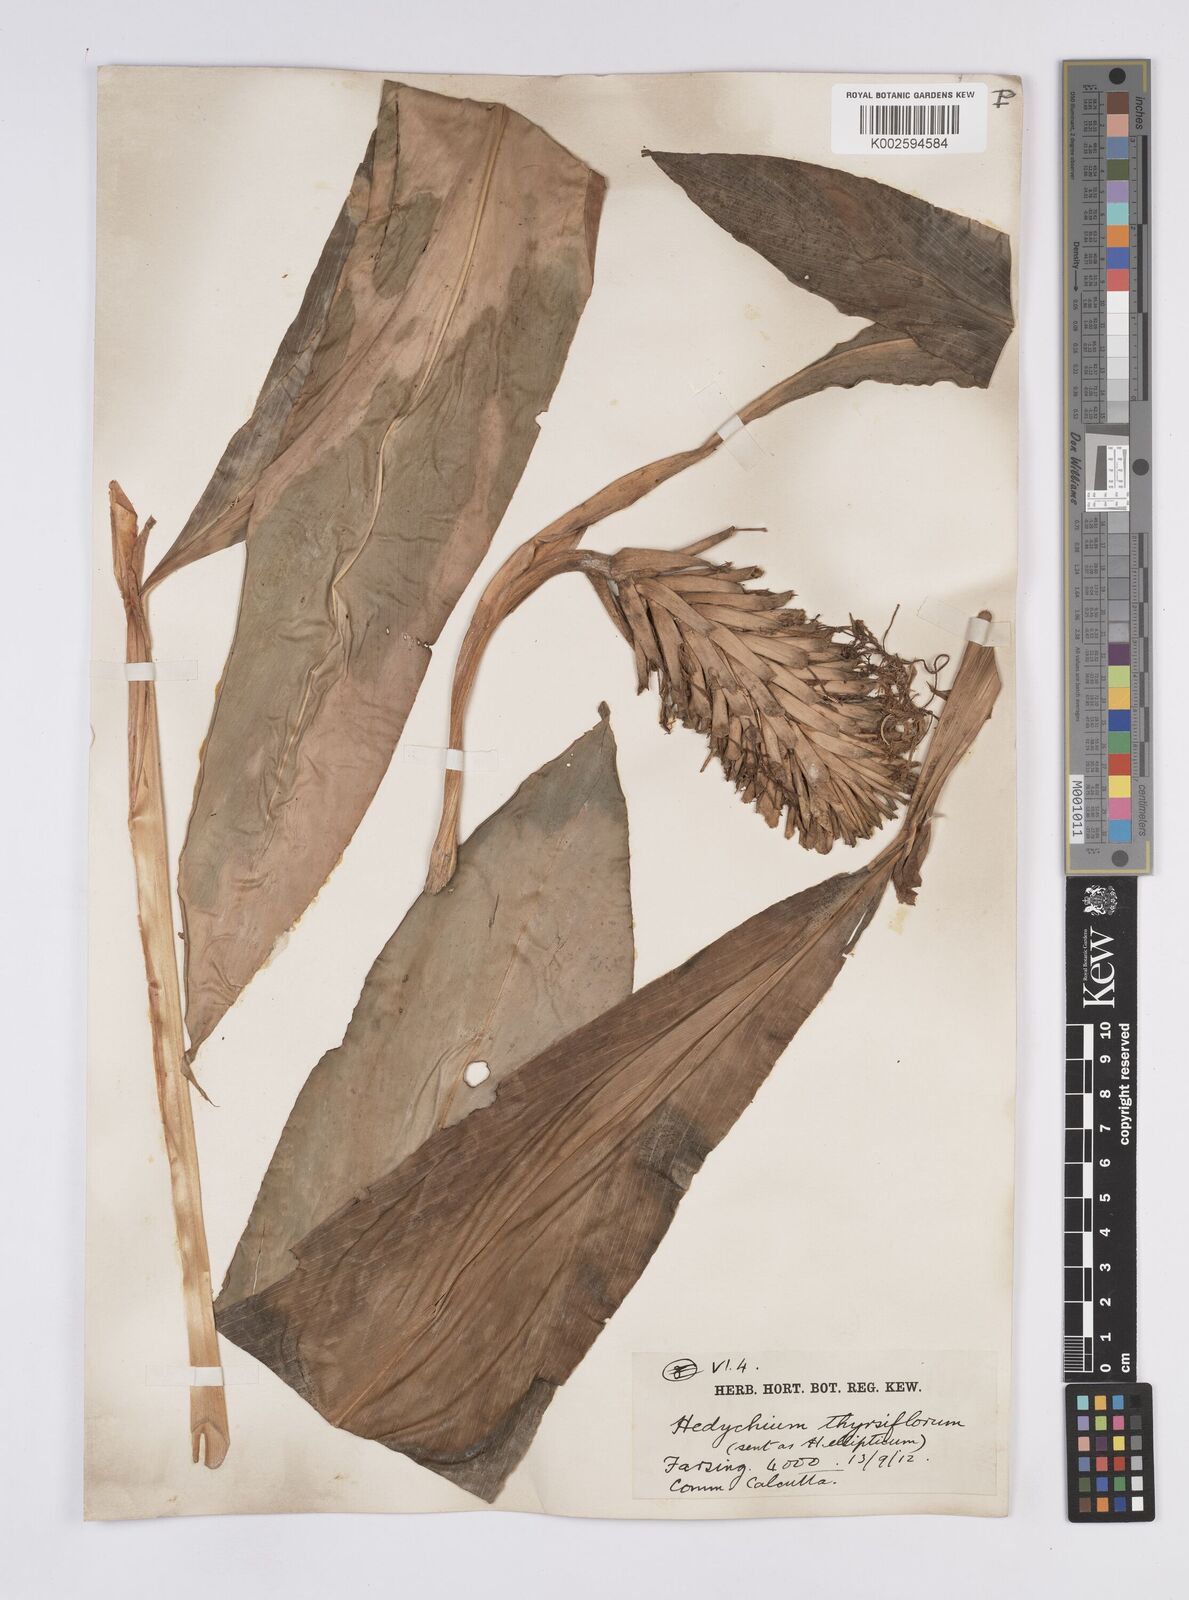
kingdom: Plantae
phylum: Tracheophyta
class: Liliopsida
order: Zingiberales
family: Zingiberaceae
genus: Hedychium
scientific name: Hedychium
